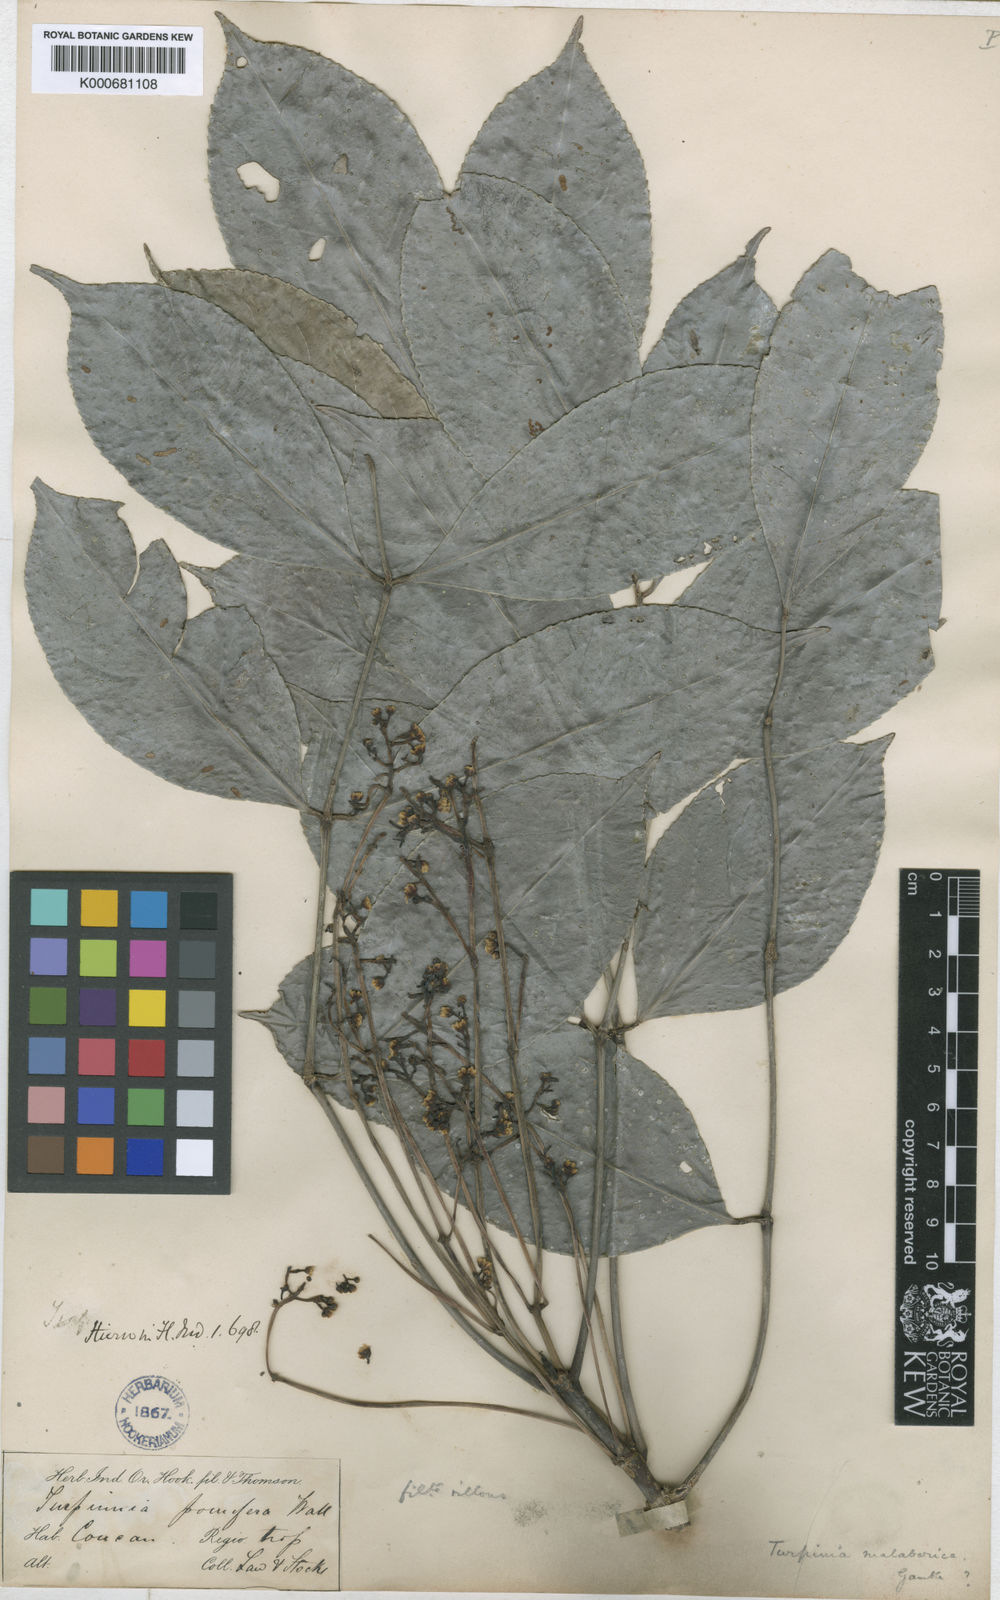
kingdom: Plantae
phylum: Tracheophyta
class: Magnoliopsida
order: Crossosomatales
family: Staphyleaceae
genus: Turpinia
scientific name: Turpinia malabarica
